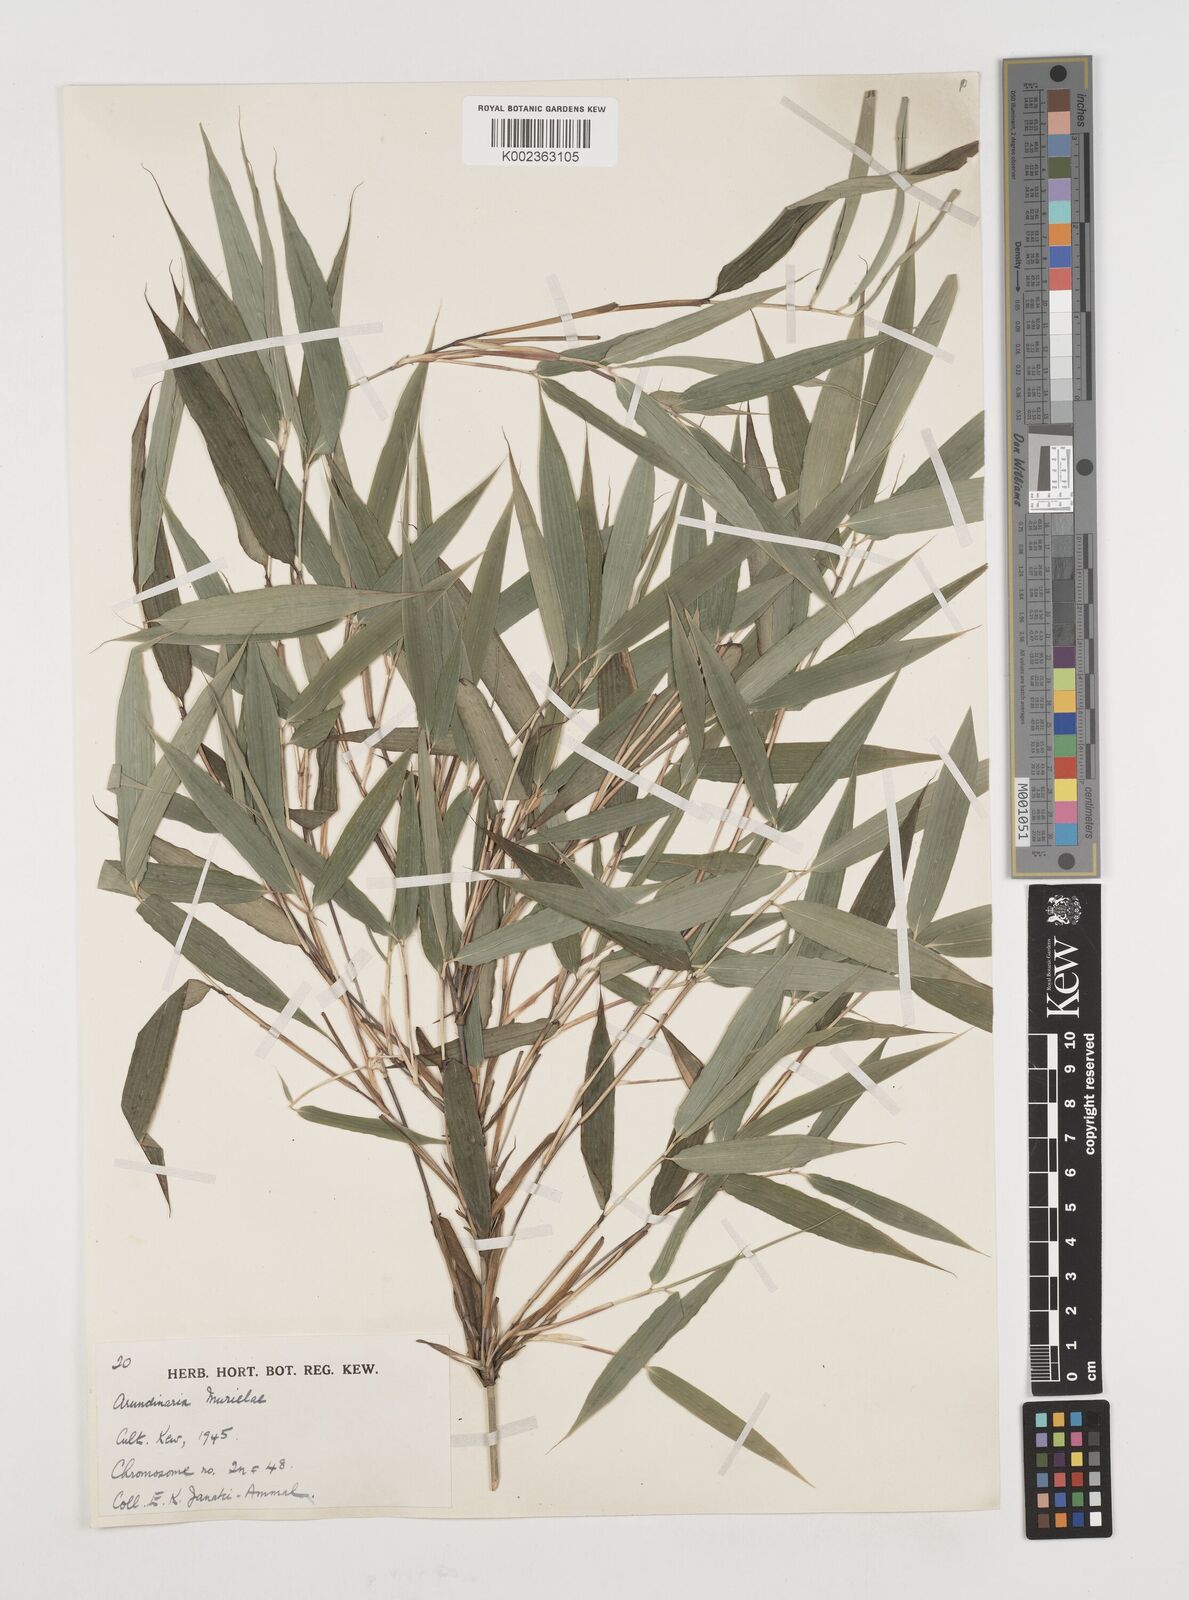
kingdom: Plantae
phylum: Tracheophyta
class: Liliopsida
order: Poales
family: Poaceae
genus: Fargesia
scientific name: Fargesia murielae
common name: Umbrella bamboo
